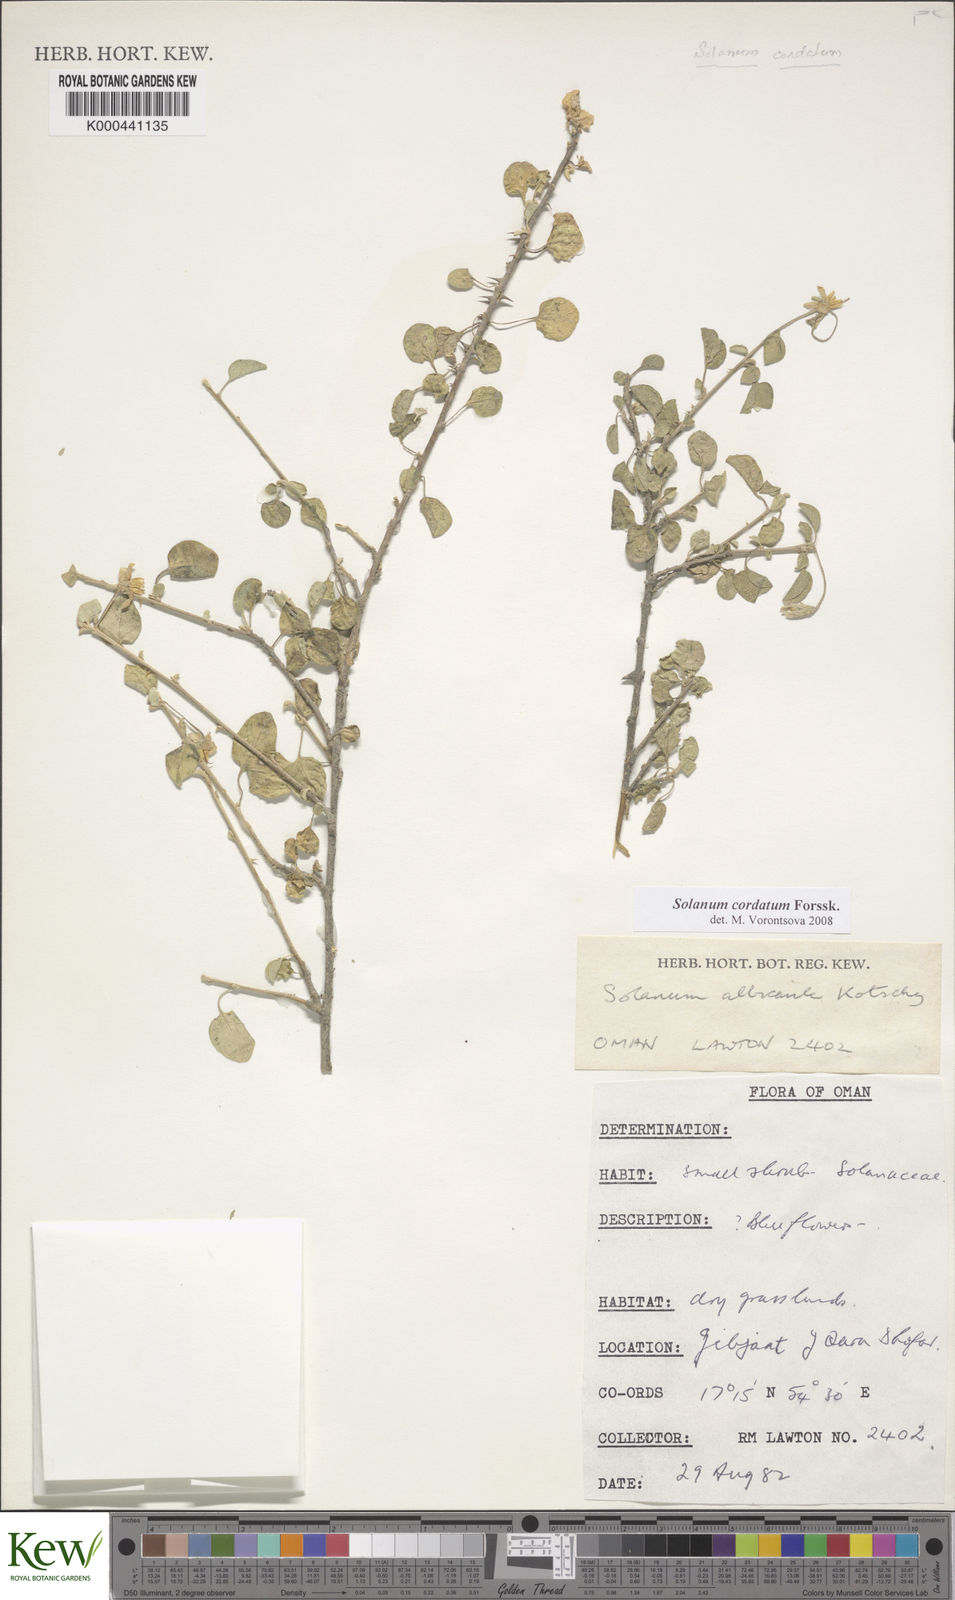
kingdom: Plantae
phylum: Tracheophyta
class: Magnoliopsida
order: Solanales
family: Solanaceae
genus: Solanum
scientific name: Solanum cordatum
